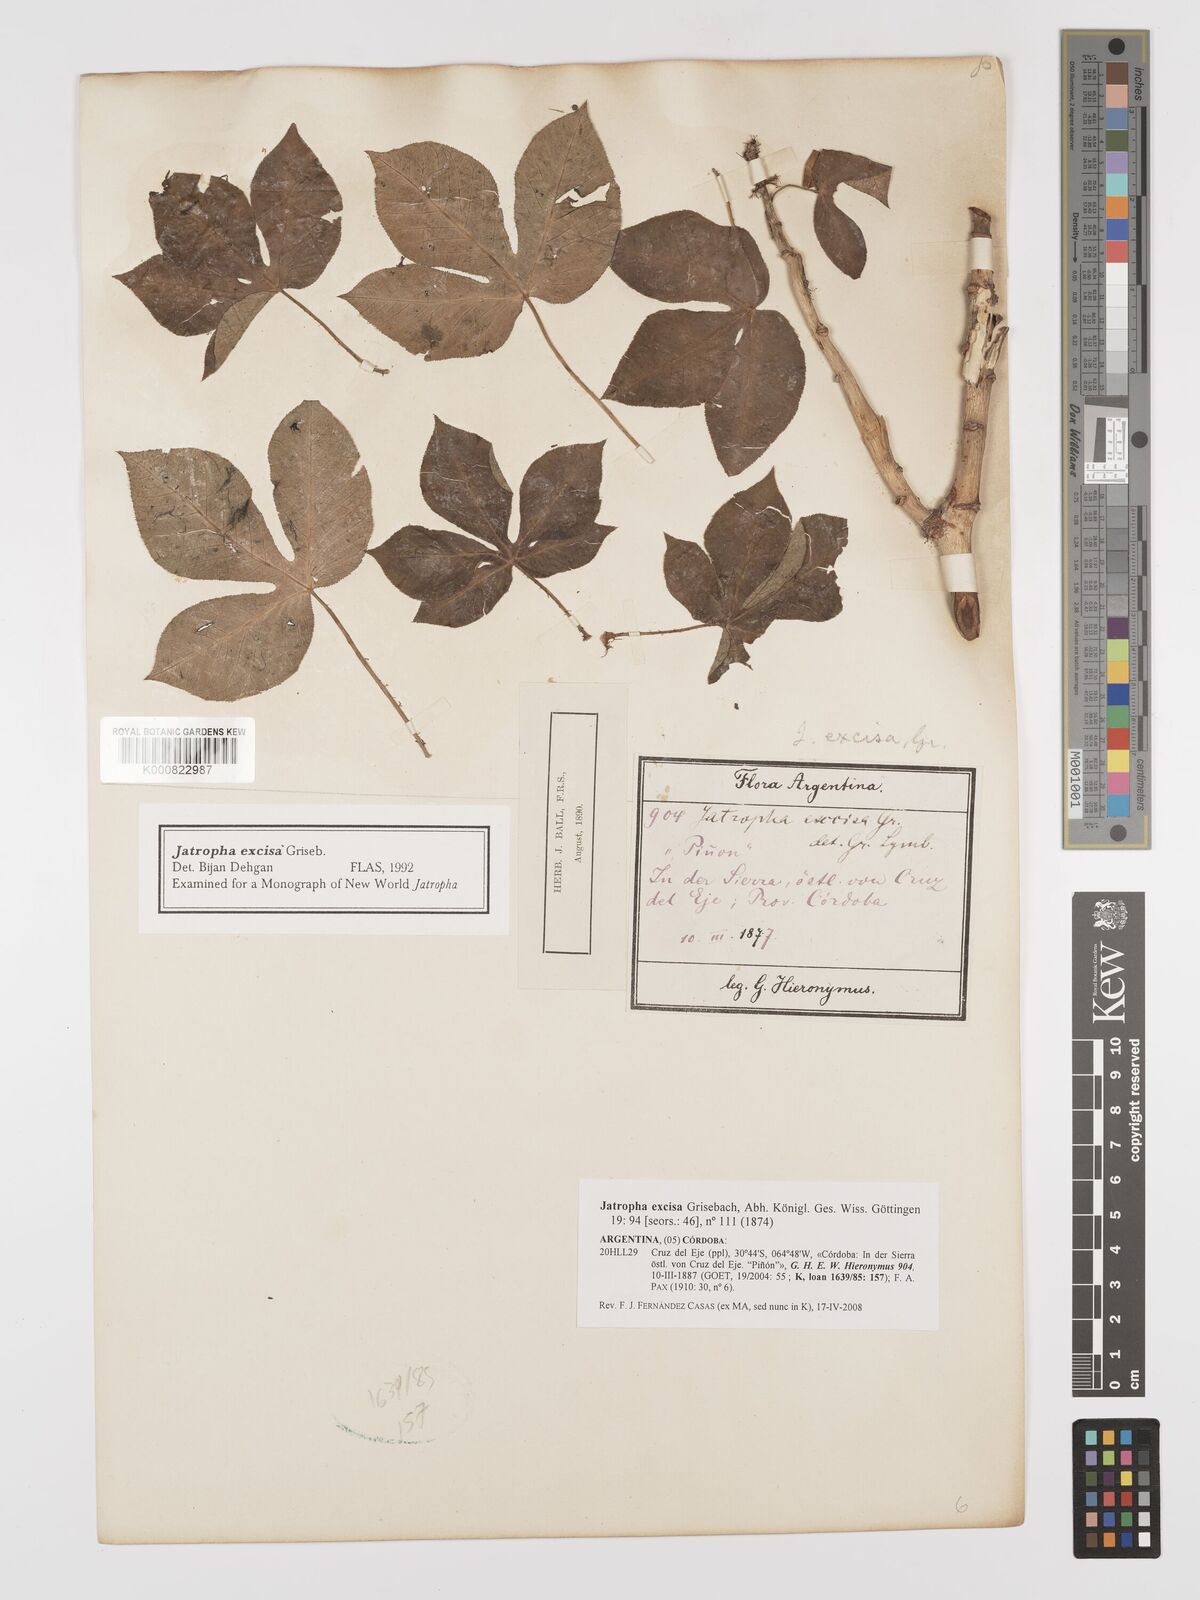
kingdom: Plantae
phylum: Tracheophyta
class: Magnoliopsida
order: Malpighiales
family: Euphorbiaceae
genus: Jatropha
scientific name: Jatropha excisa
